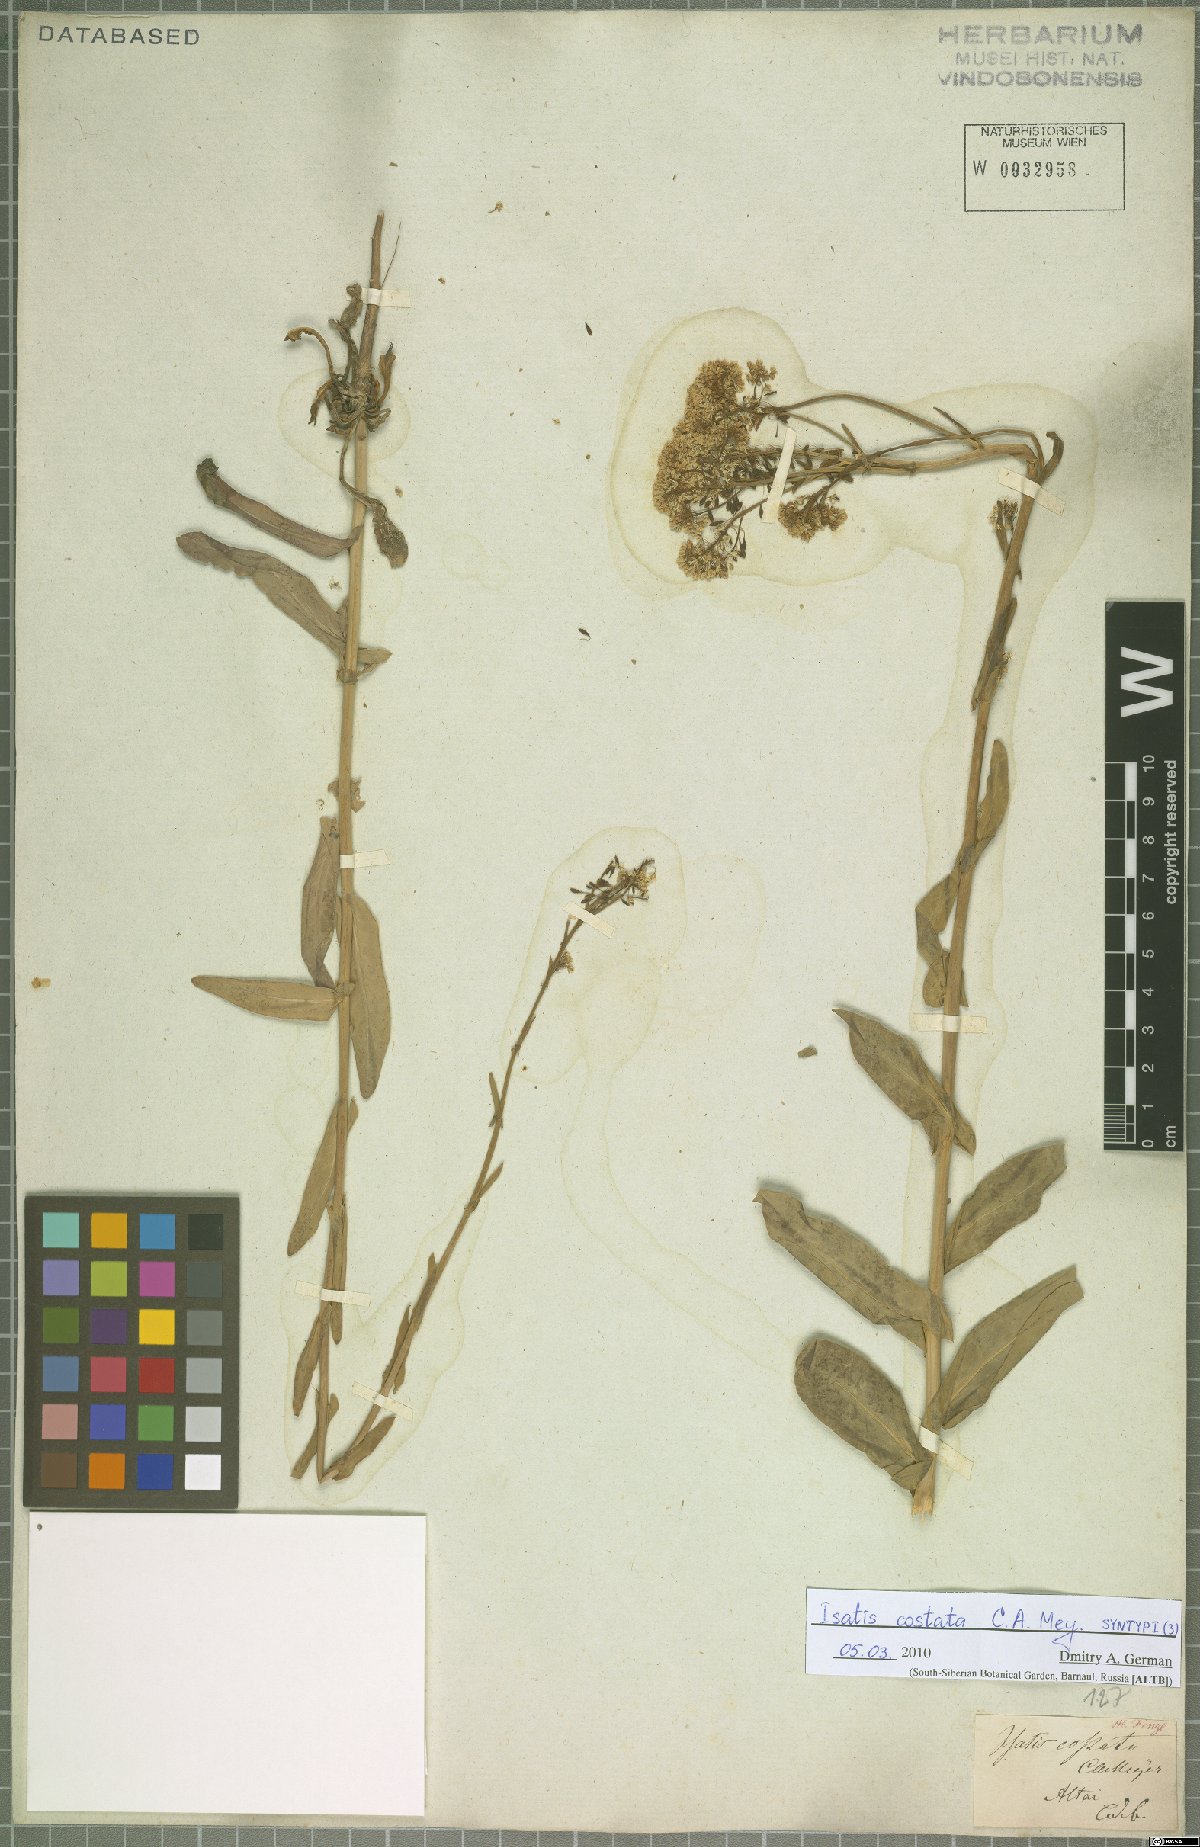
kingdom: Plantae
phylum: Tracheophyta
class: Magnoliopsida
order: Brassicales
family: Brassicaceae
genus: Isatis
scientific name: Isatis costata
